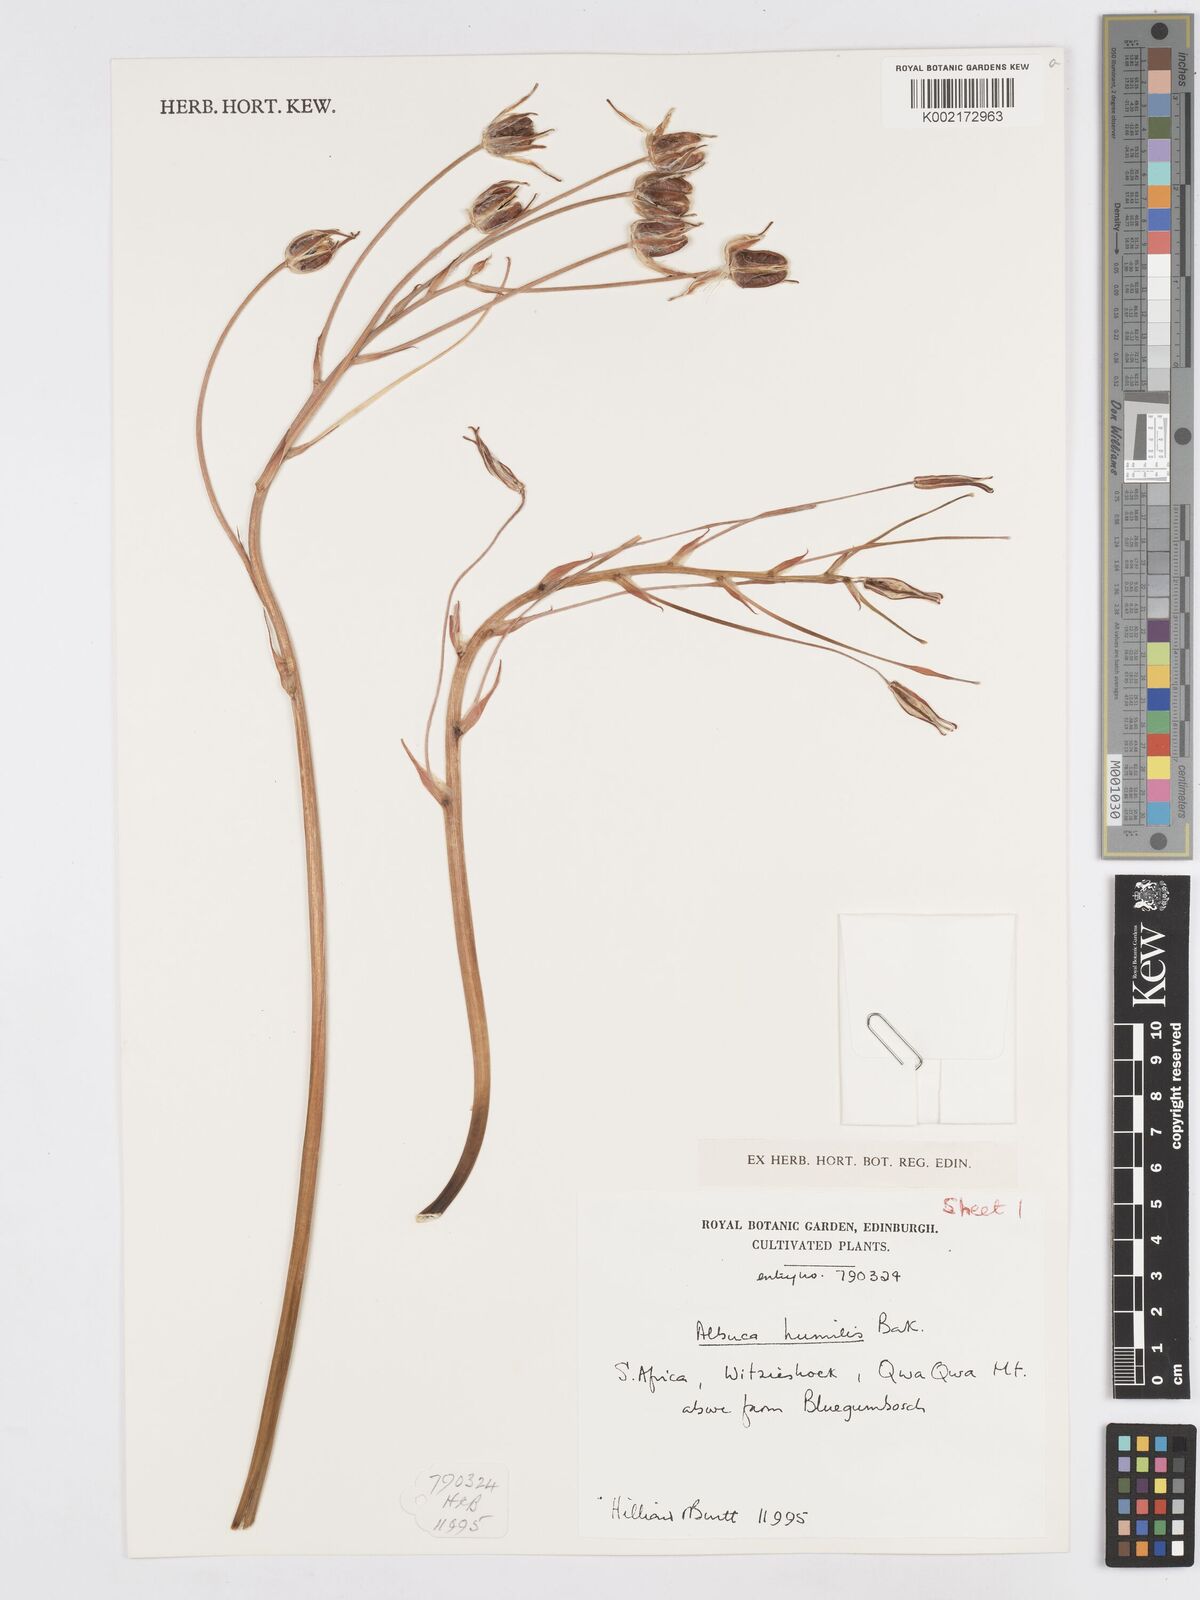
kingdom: Plantae
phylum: Tracheophyta
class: Liliopsida
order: Asparagales
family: Asparagaceae
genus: Albuca
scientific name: Albuca humilis
